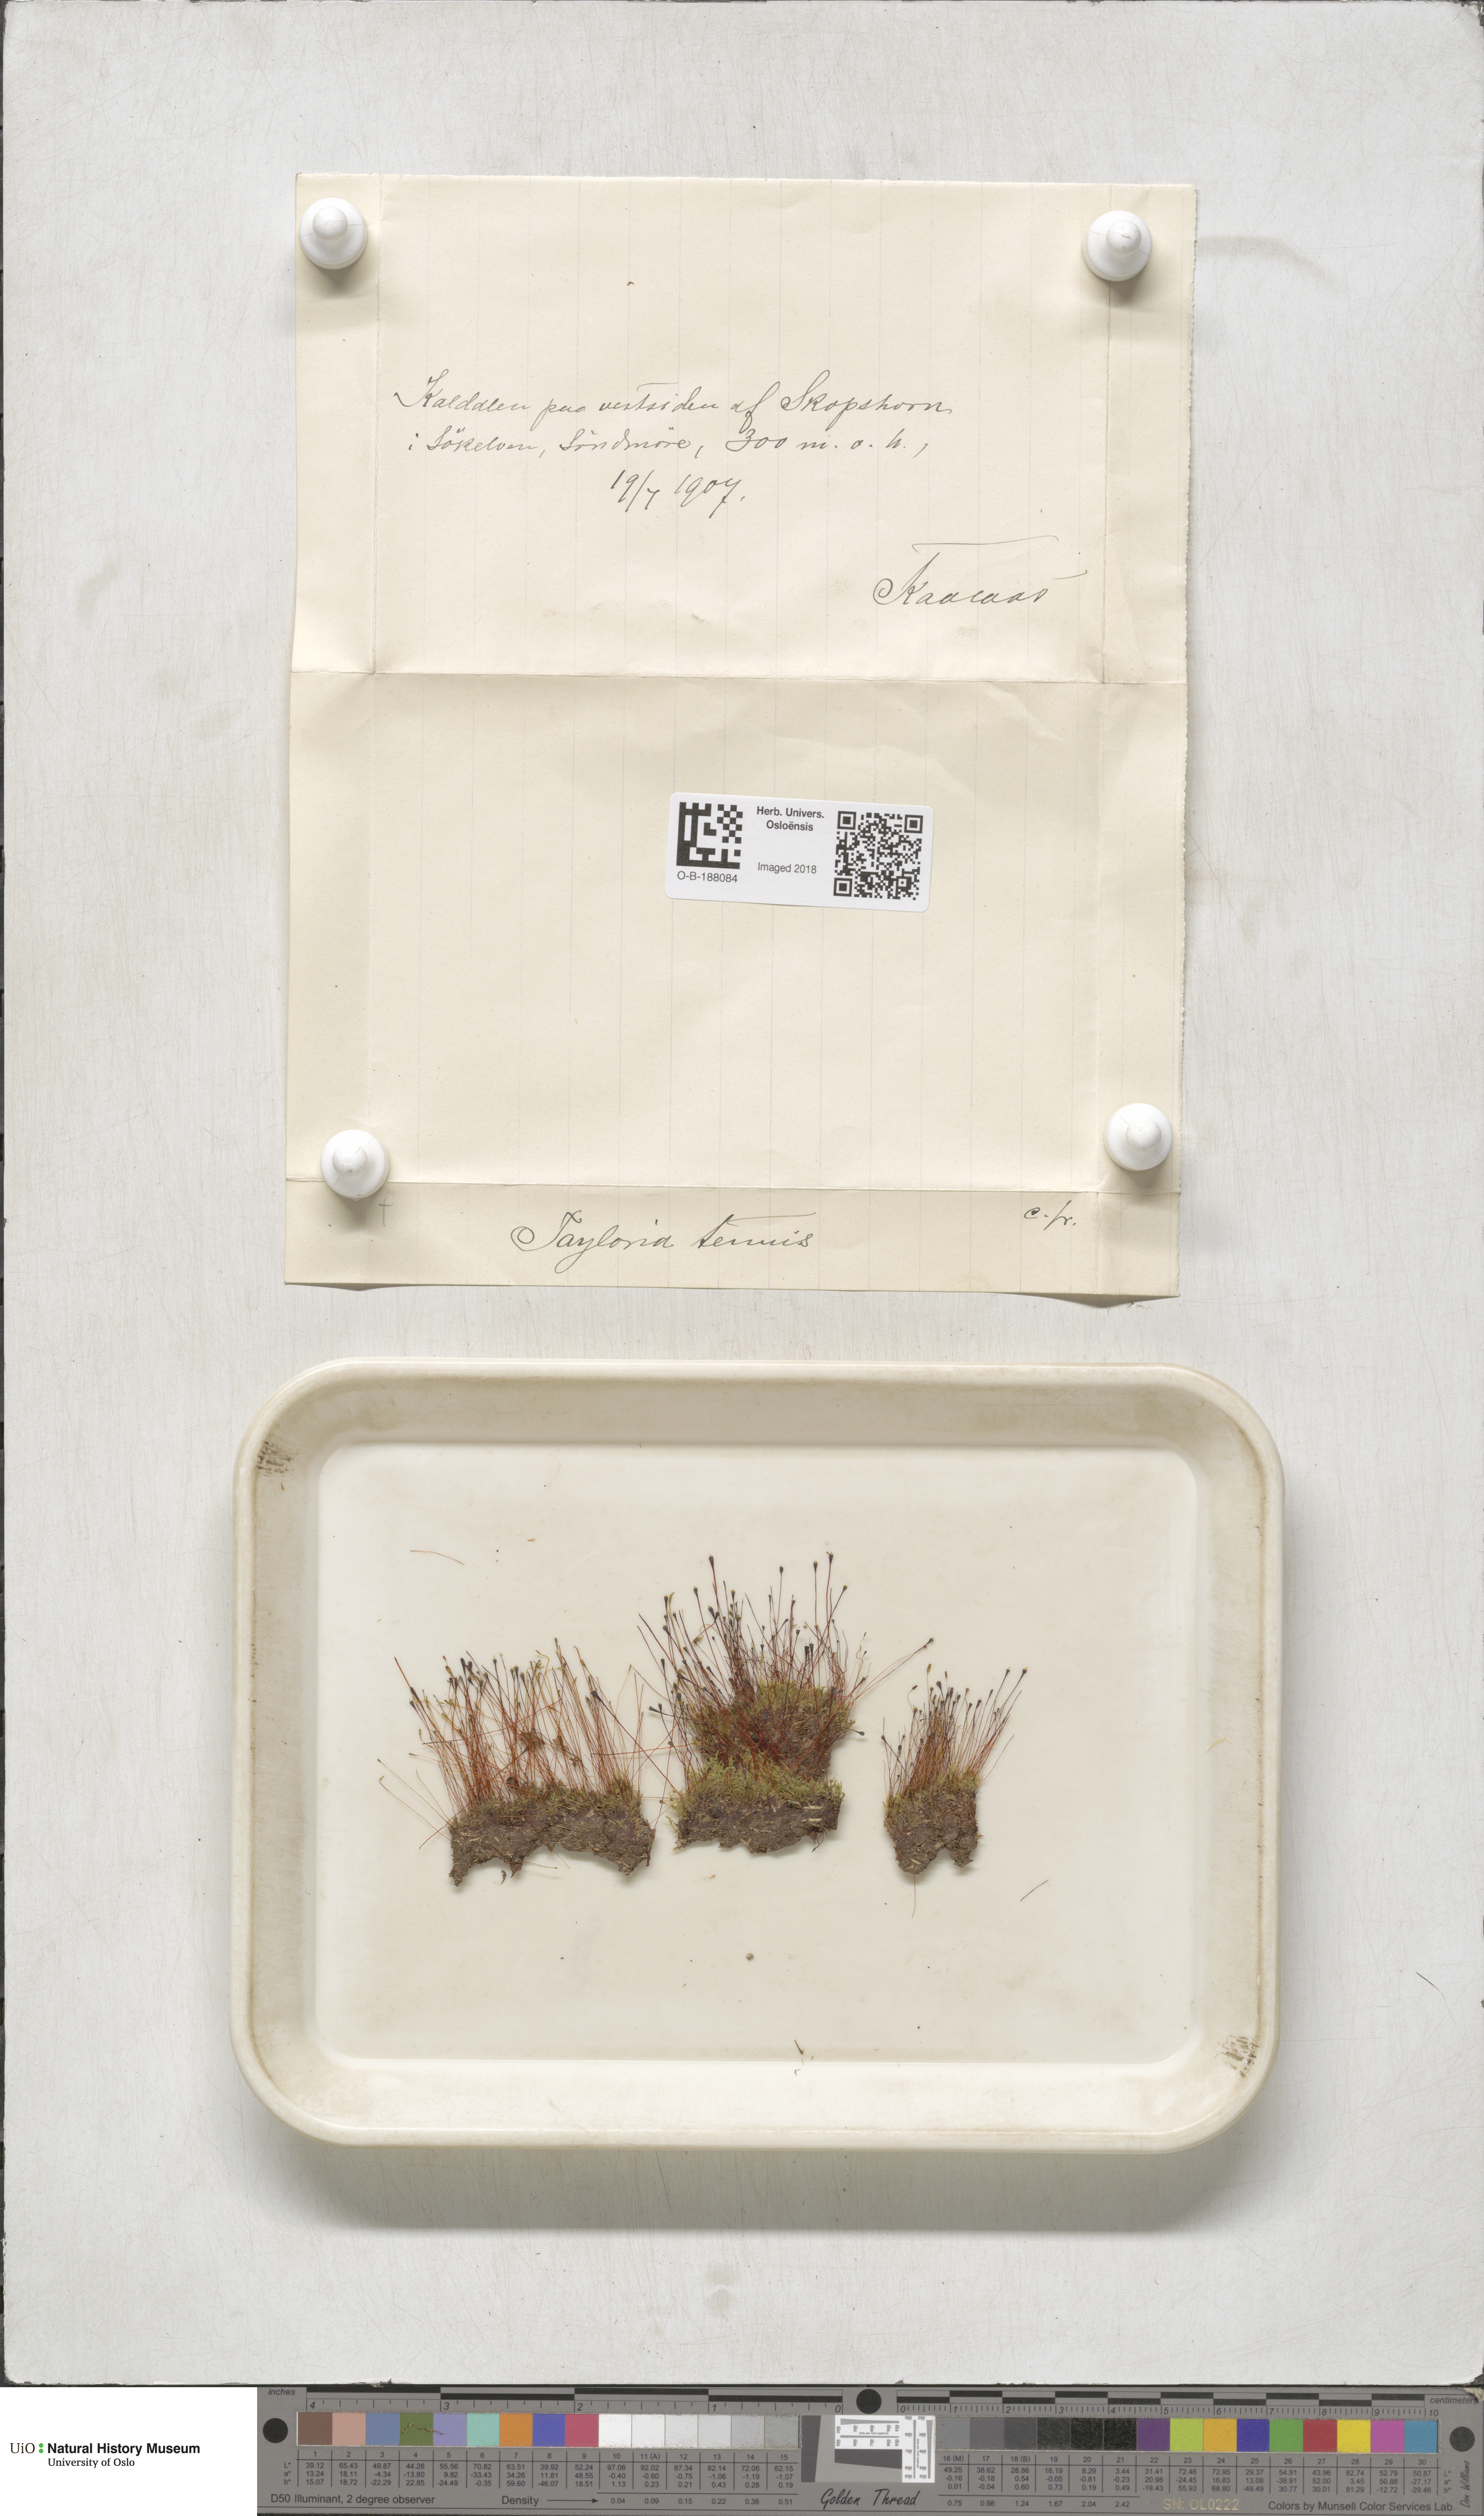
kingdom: Plantae
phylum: Bryophyta
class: Bryopsida
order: Splachnales
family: Splachnaceae
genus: Tayloria
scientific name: Tayloria tenuis
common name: Slender gland-moss
